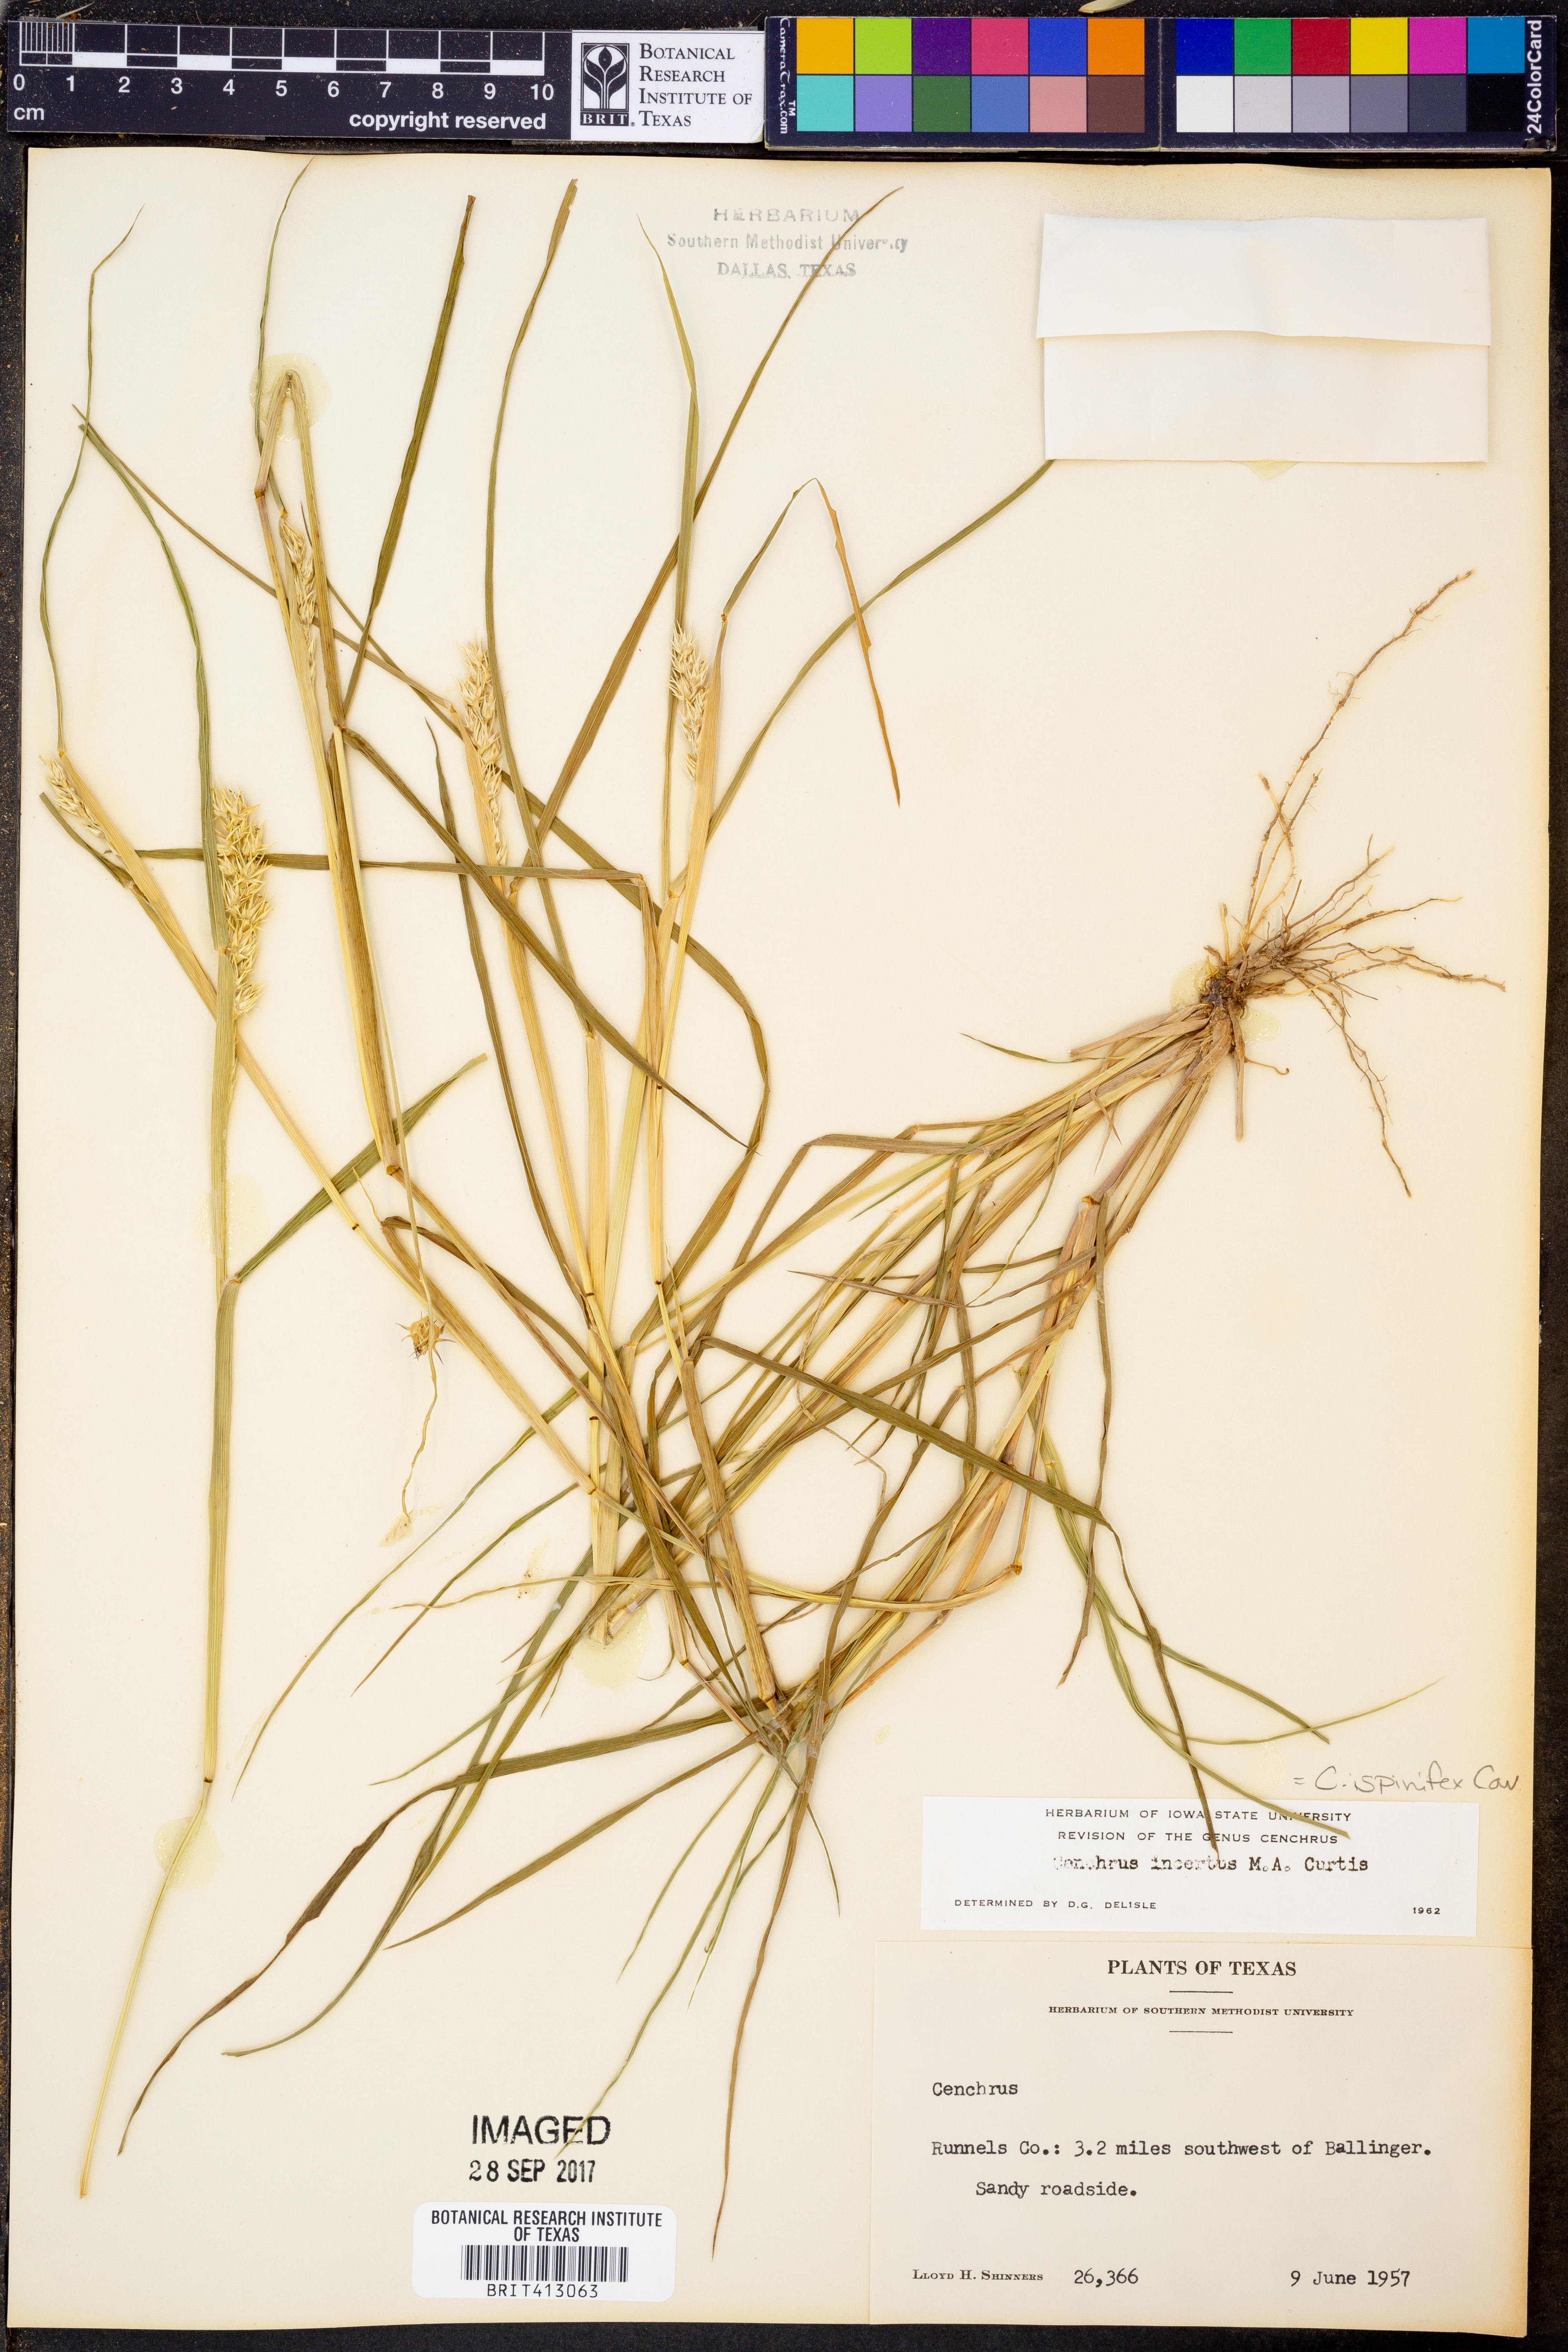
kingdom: Plantae
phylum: Tracheophyta
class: Liliopsida
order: Poales
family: Poaceae
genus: Cenchrus
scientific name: Cenchrus spinifex
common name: Coast sandbur
